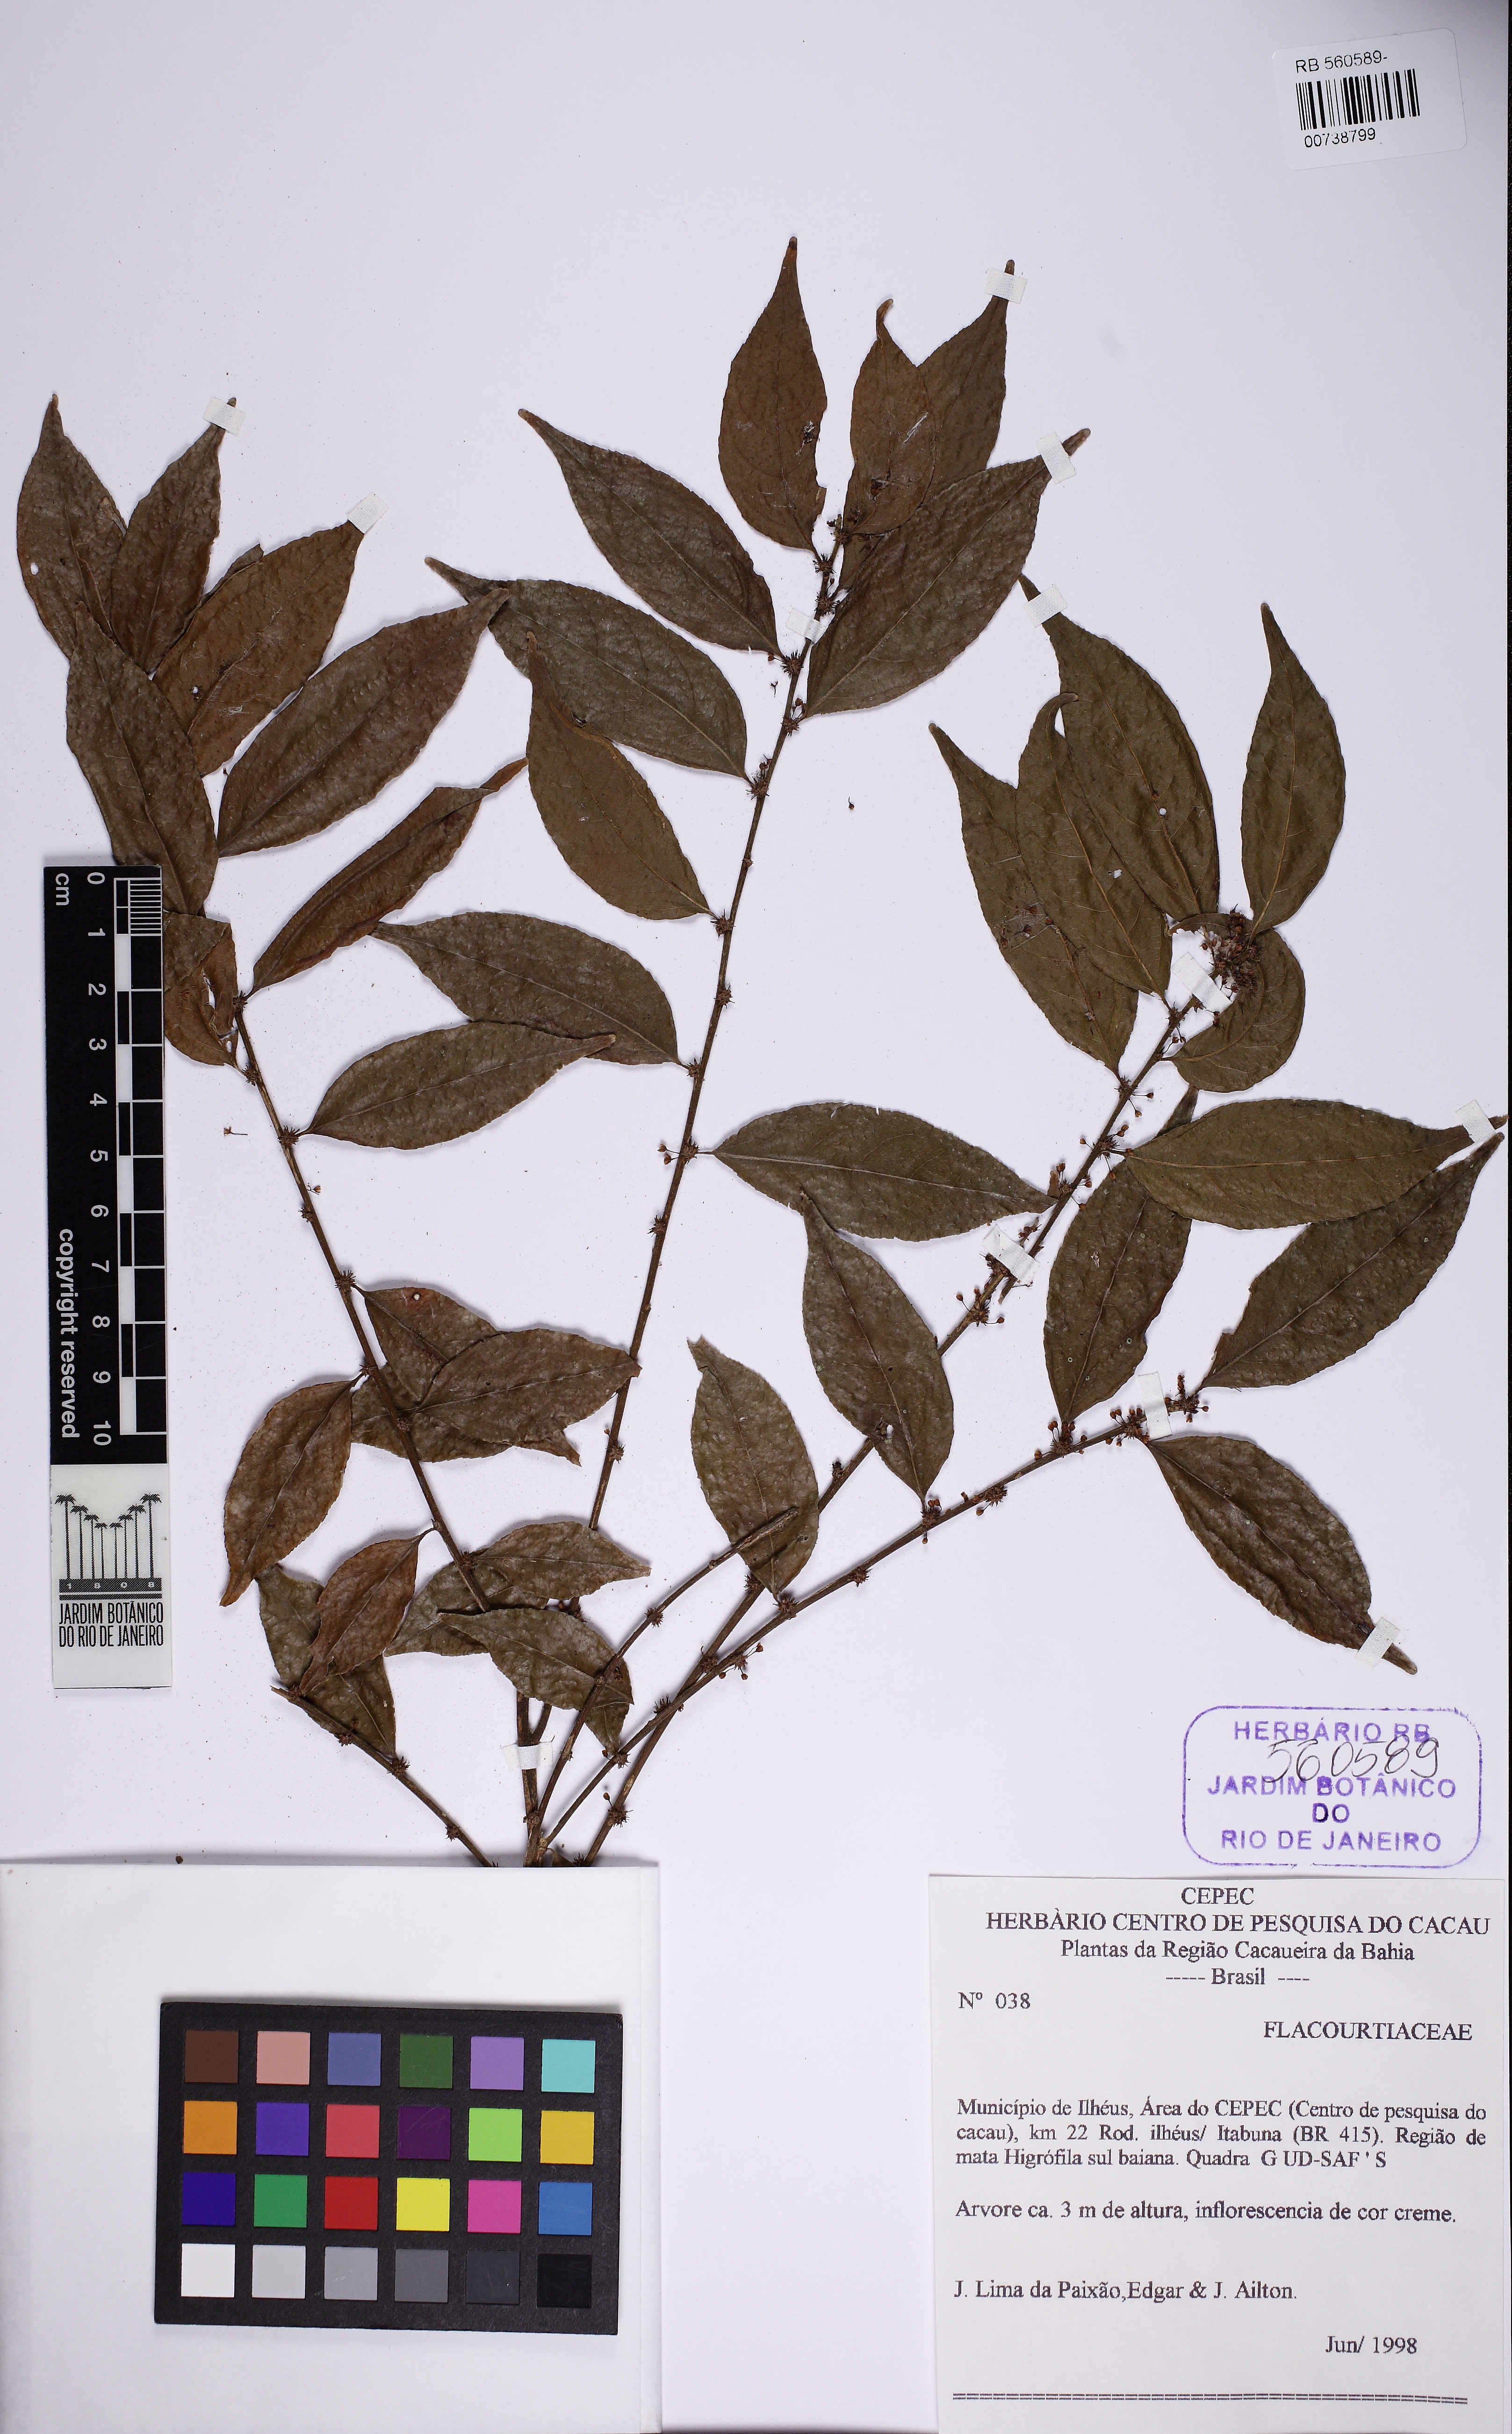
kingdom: Plantae
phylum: Tracheophyta
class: Magnoliopsida
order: Malpighiales
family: Salicaceae
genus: Casearia
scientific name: Casearia sylvestris
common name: Wild sage
